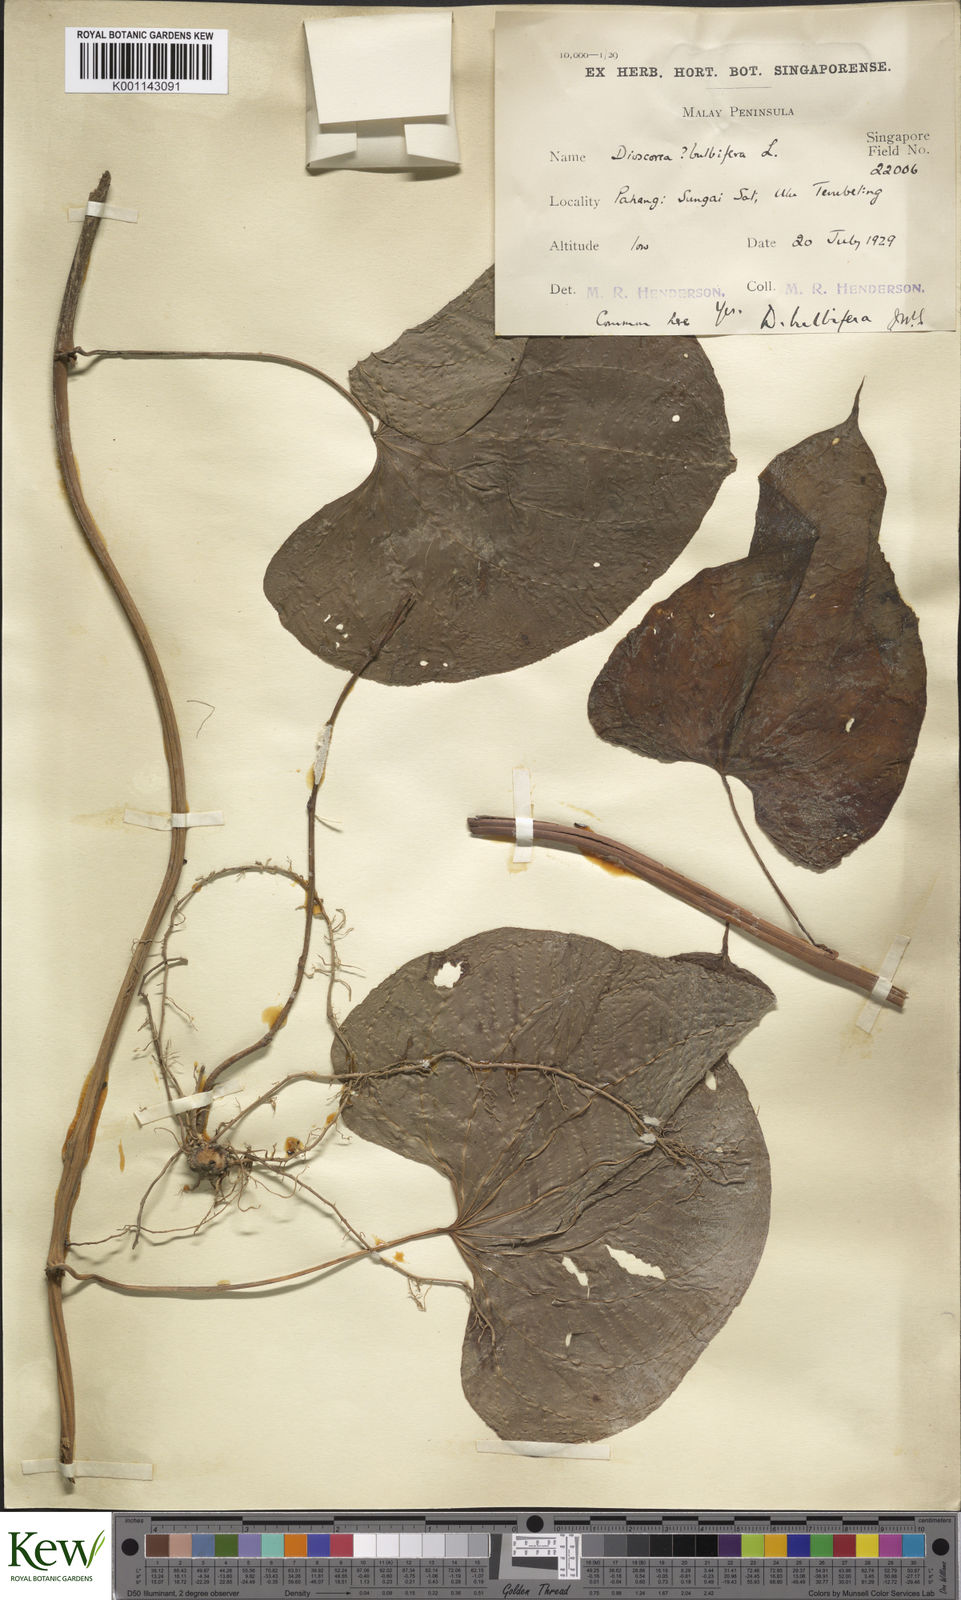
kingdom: Plantae
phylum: Tracheophyta
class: Liliopsida
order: Dioscoreales
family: Dioscoreaceae
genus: Dioscorea
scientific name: Dioscorea bulbifera
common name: Air yam
